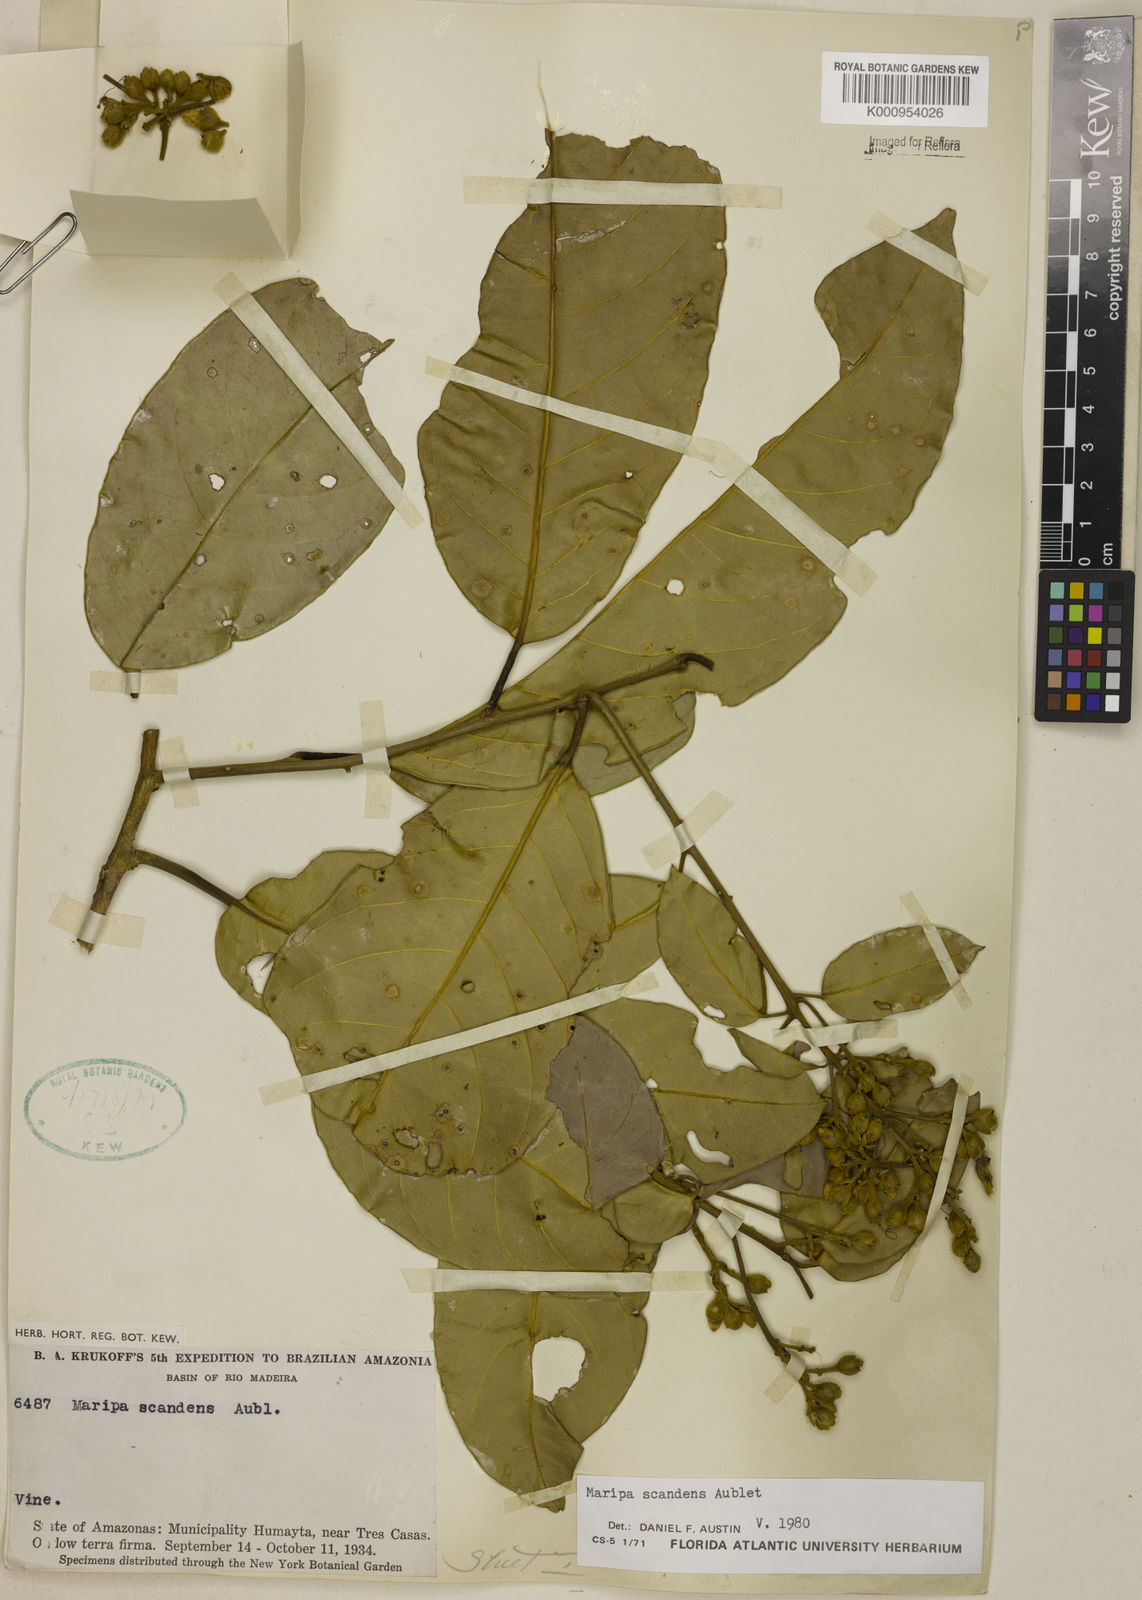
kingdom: Plantae
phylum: Tracheophyta
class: Magnoliopsida
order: Solanales
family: Convolvulaceae
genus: Maripa
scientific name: Maripa scandens
